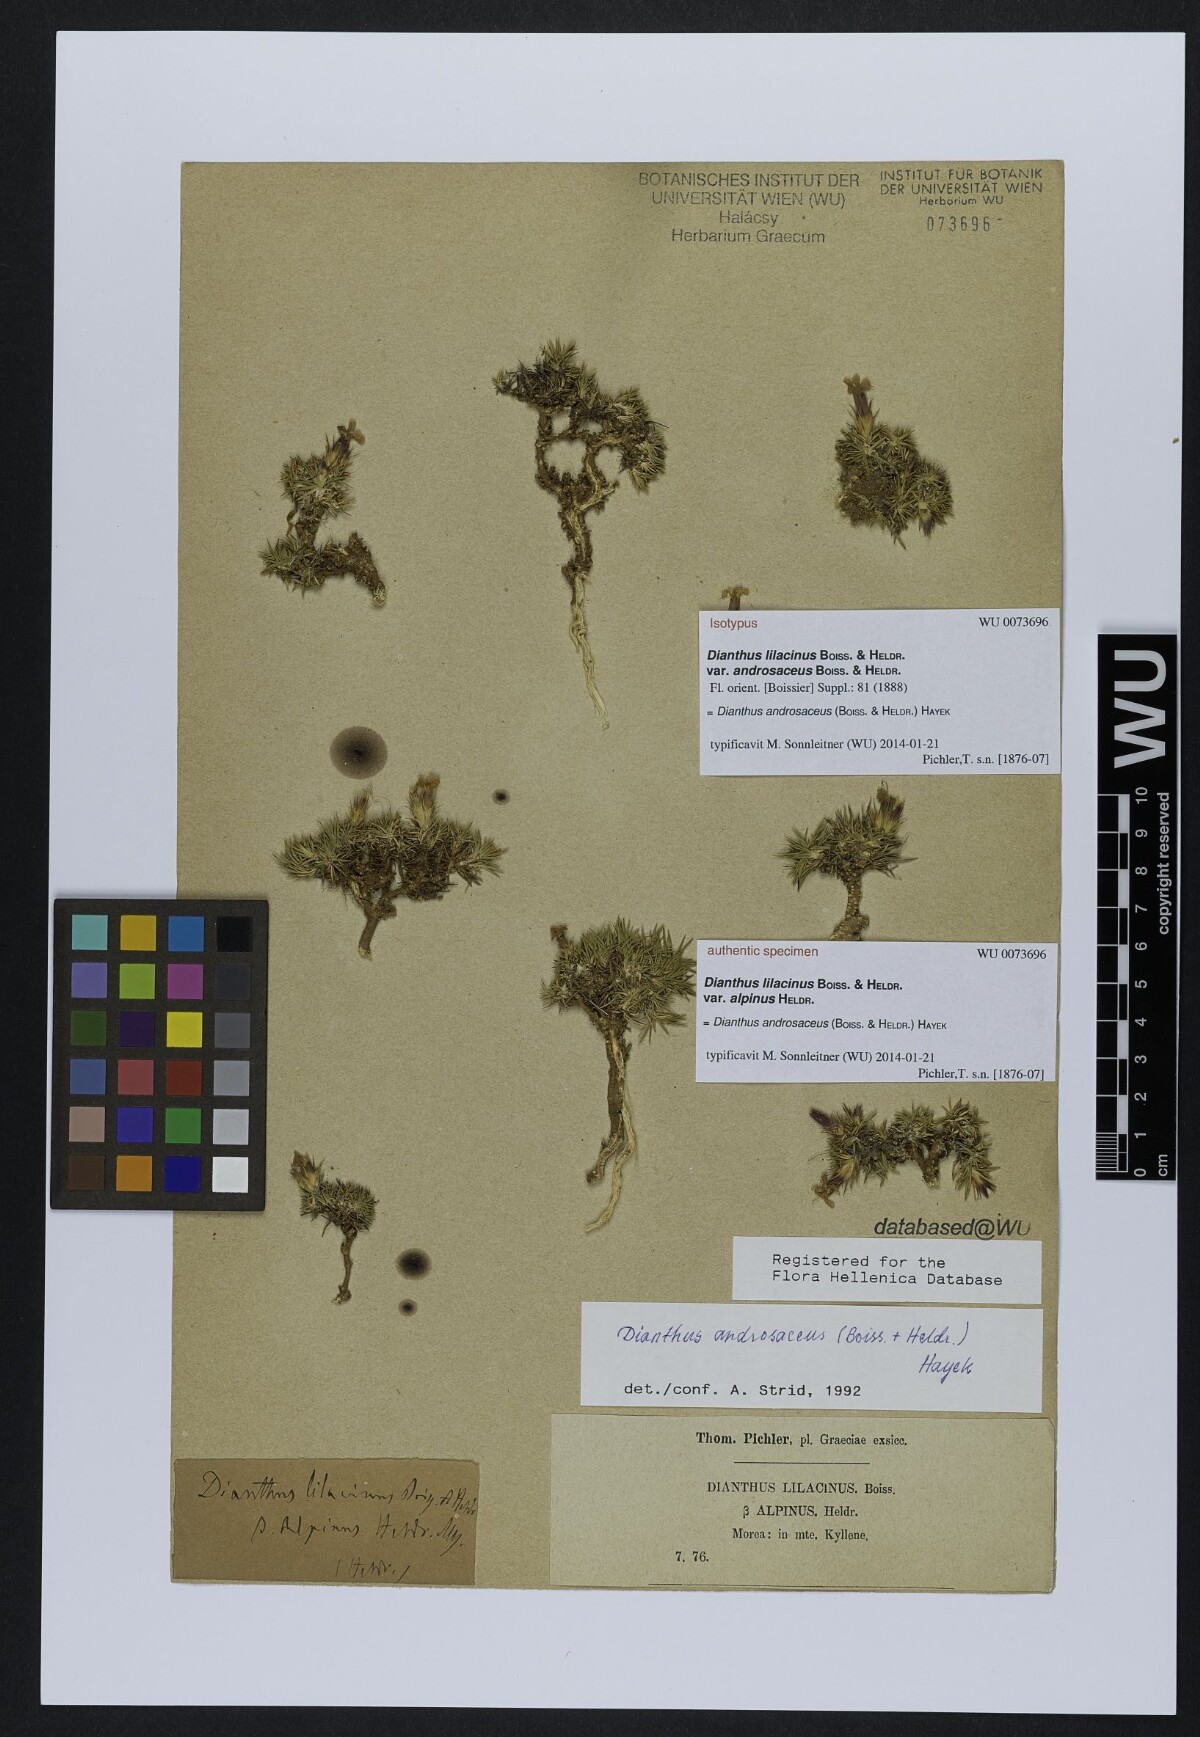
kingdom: Plantae
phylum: Tracheophyta
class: Magnoliopsida
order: Caryophyllales
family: Caryophyllaceae
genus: Dianthus
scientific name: Dianthus androsaceus
